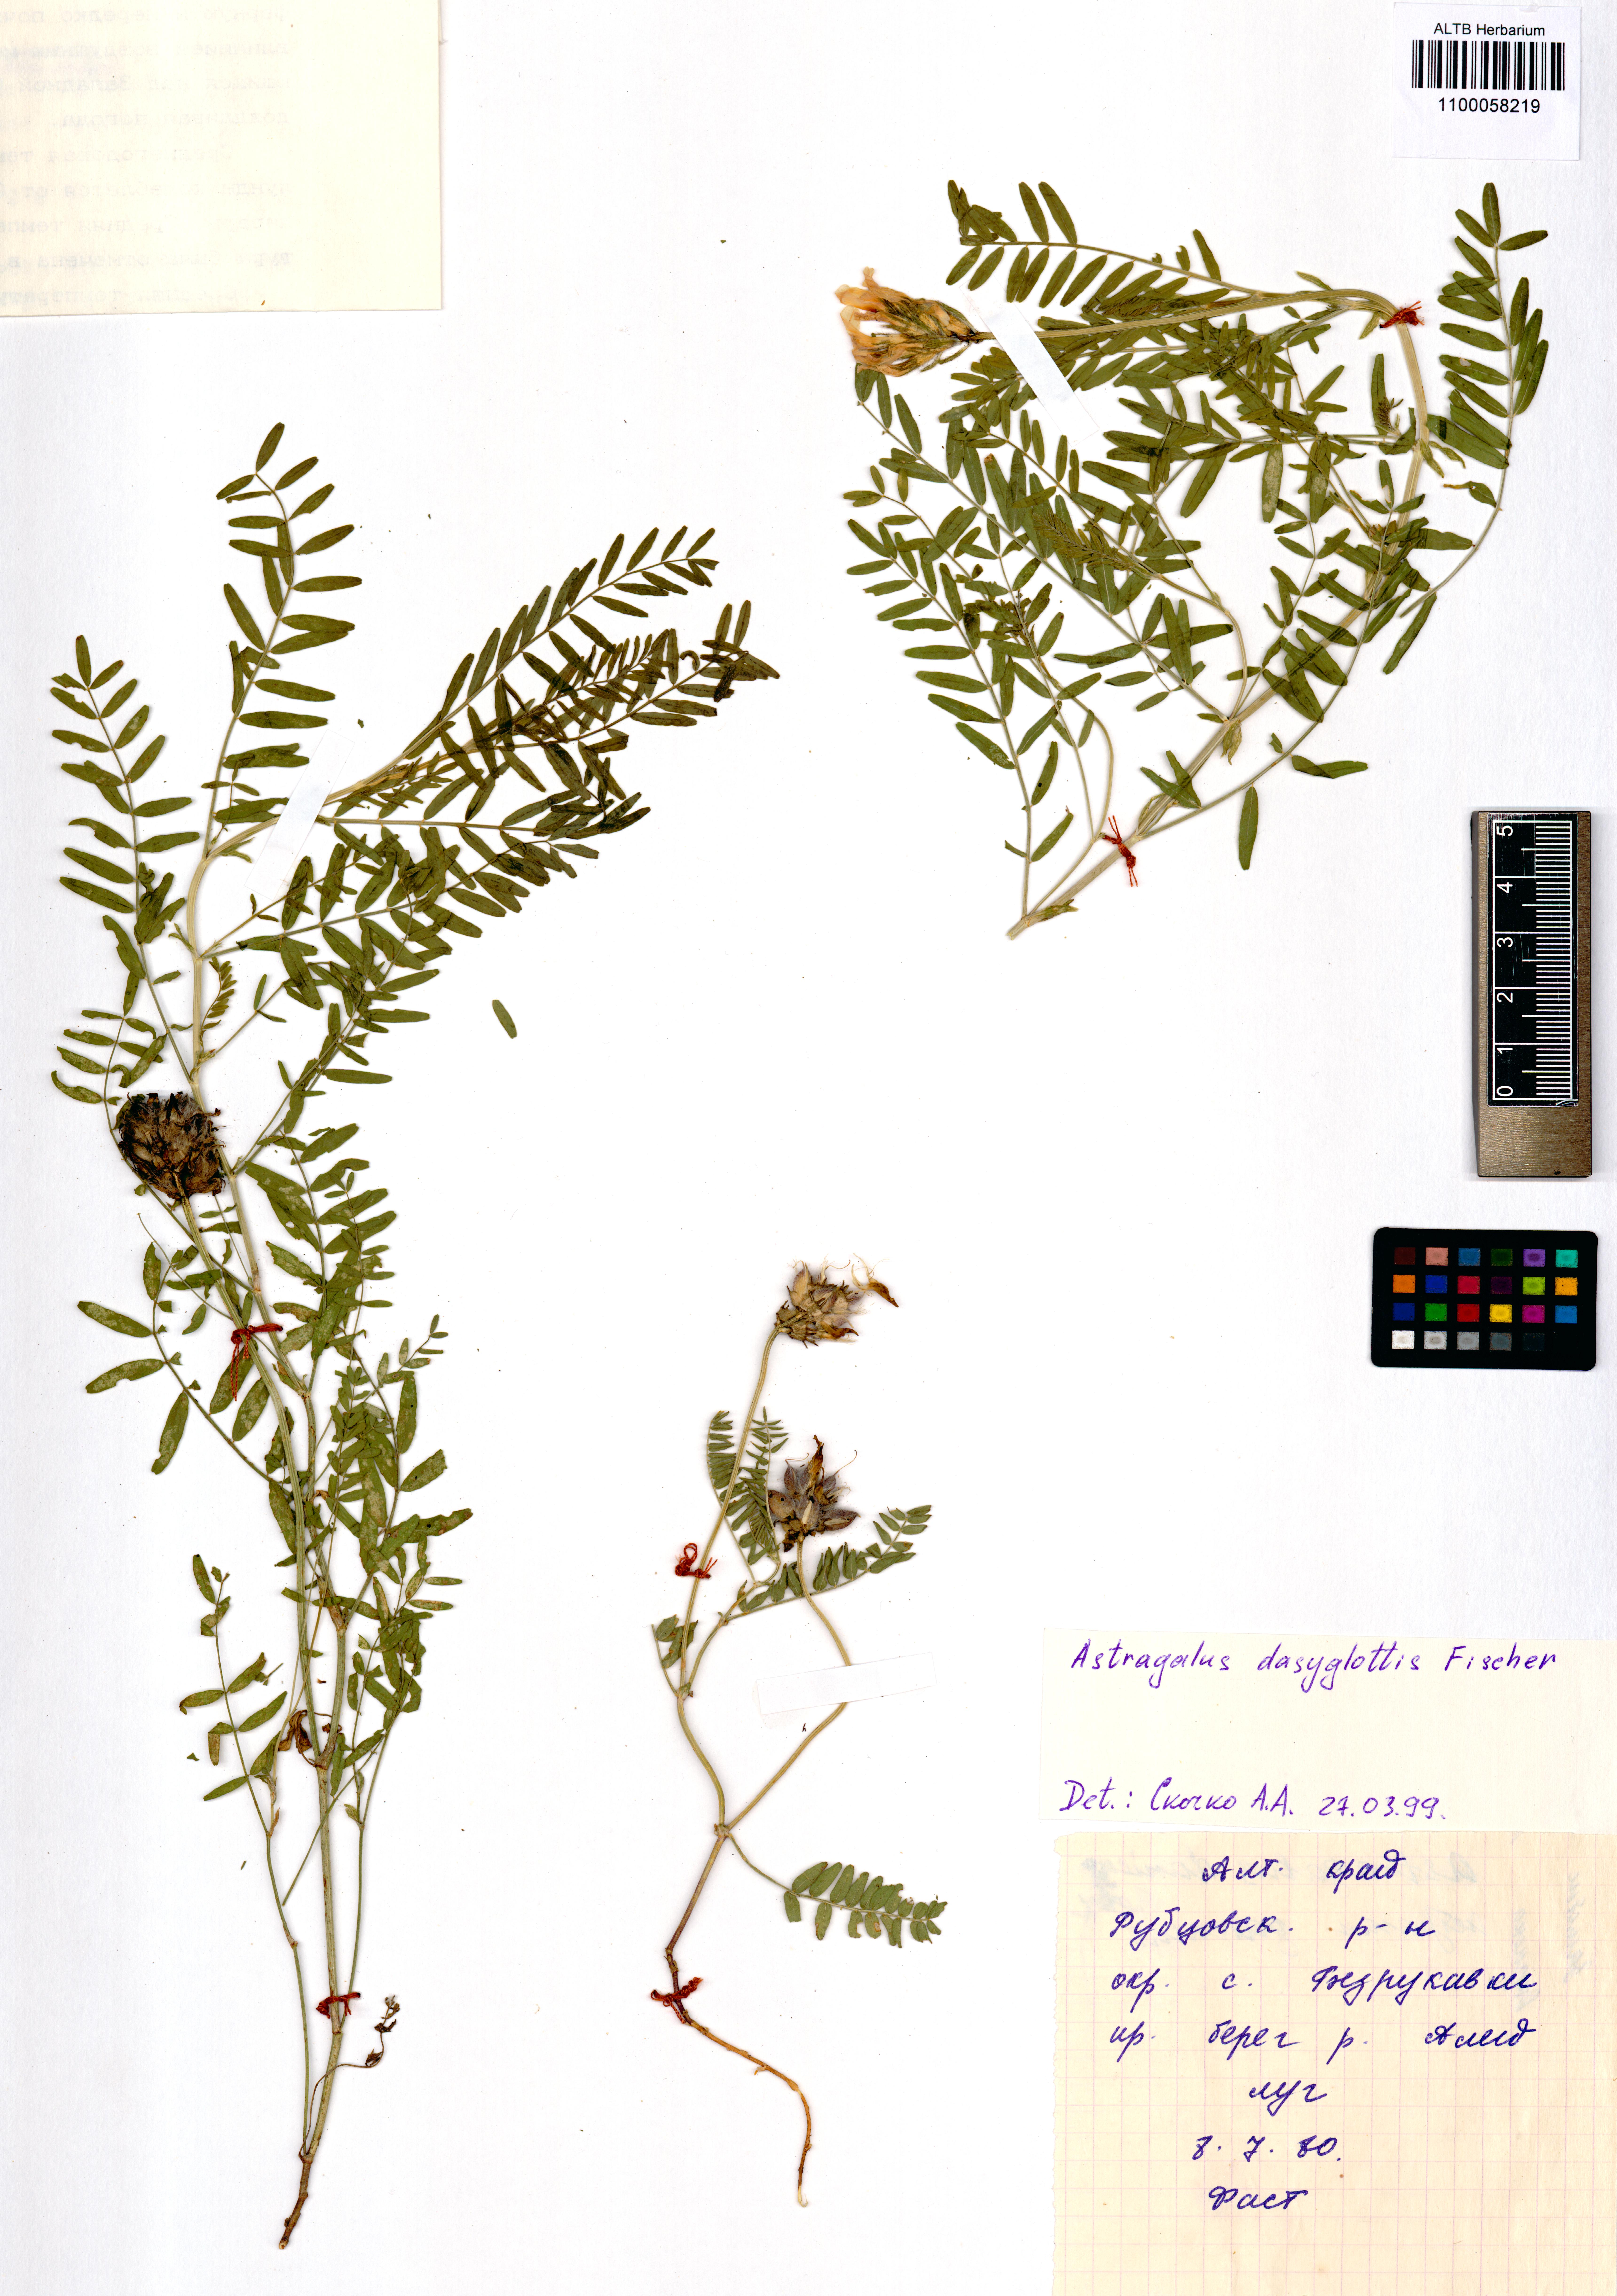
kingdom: Plantae
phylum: Tracheophyta
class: Magnoliopsida
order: Fabales
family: Fabaceae
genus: Astragalus
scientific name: Astragalus agrestis
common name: Field milk-vetch
